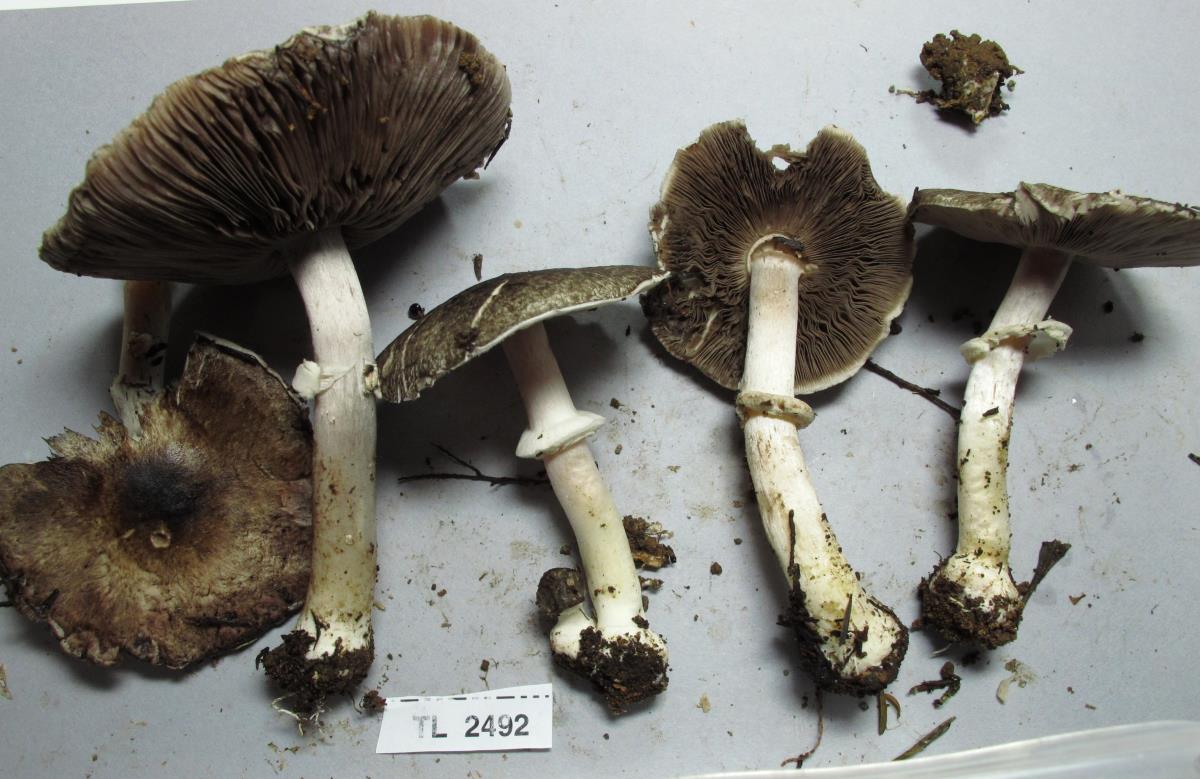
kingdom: Fungi
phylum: Basidiomycota
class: Agaricomycetes
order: Agaricales
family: Agaricaceae
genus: Agaricus
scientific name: Agaricus
